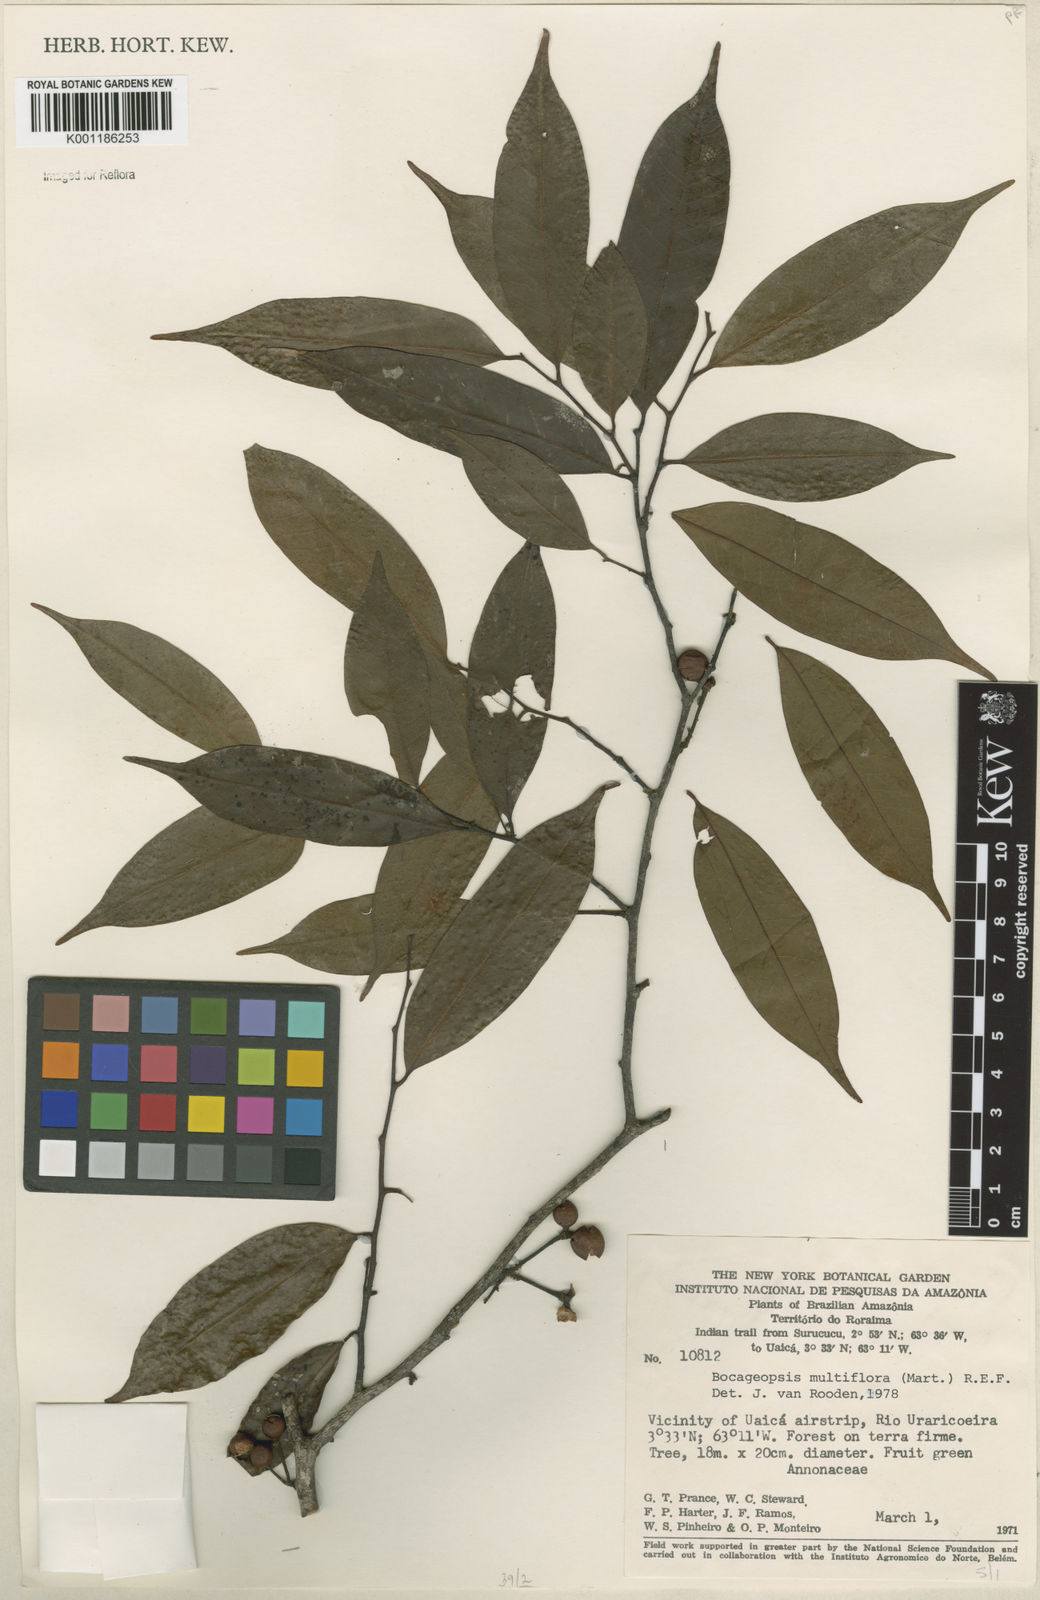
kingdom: Plantae
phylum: Tracheophyta
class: Magnoliopsida
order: Magnoliales
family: Annonaceae
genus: Bocageopsis
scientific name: Bocageopsis multiflora
